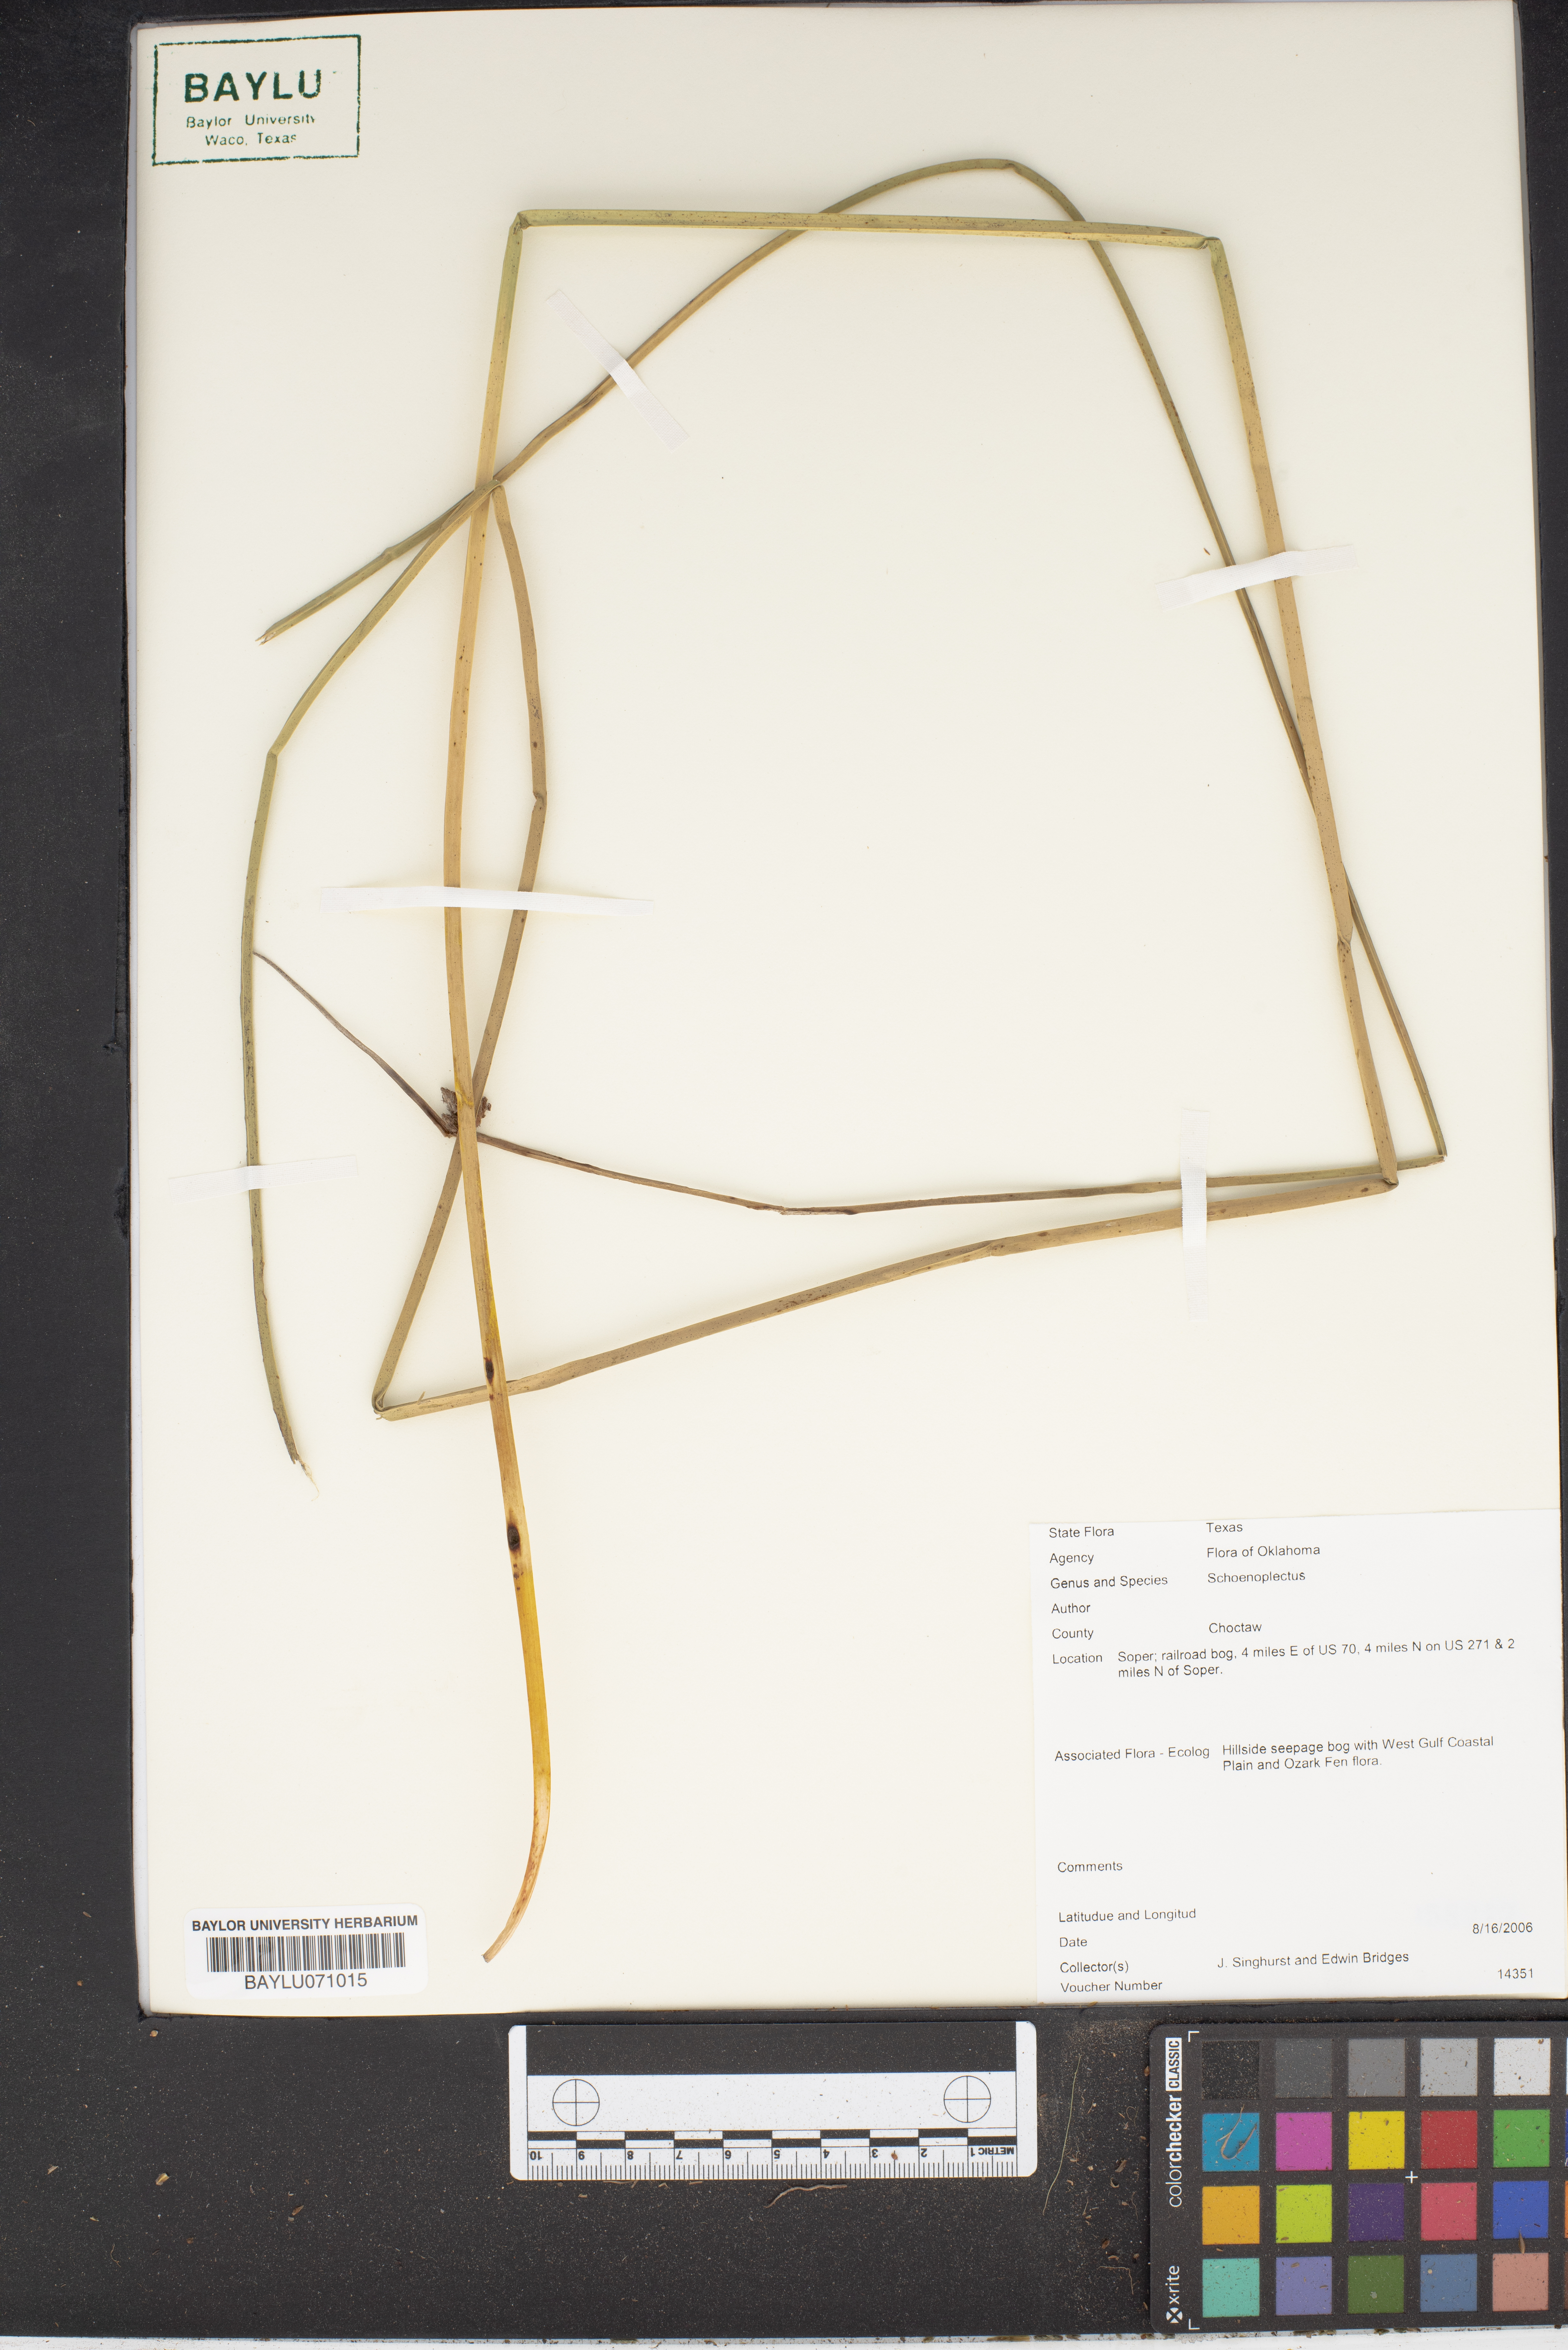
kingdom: Plantae
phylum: Tracheophyta
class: Liliopsida
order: Poales
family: Cyperaceae
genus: Schoenoplectus
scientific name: Schoenoplectus
